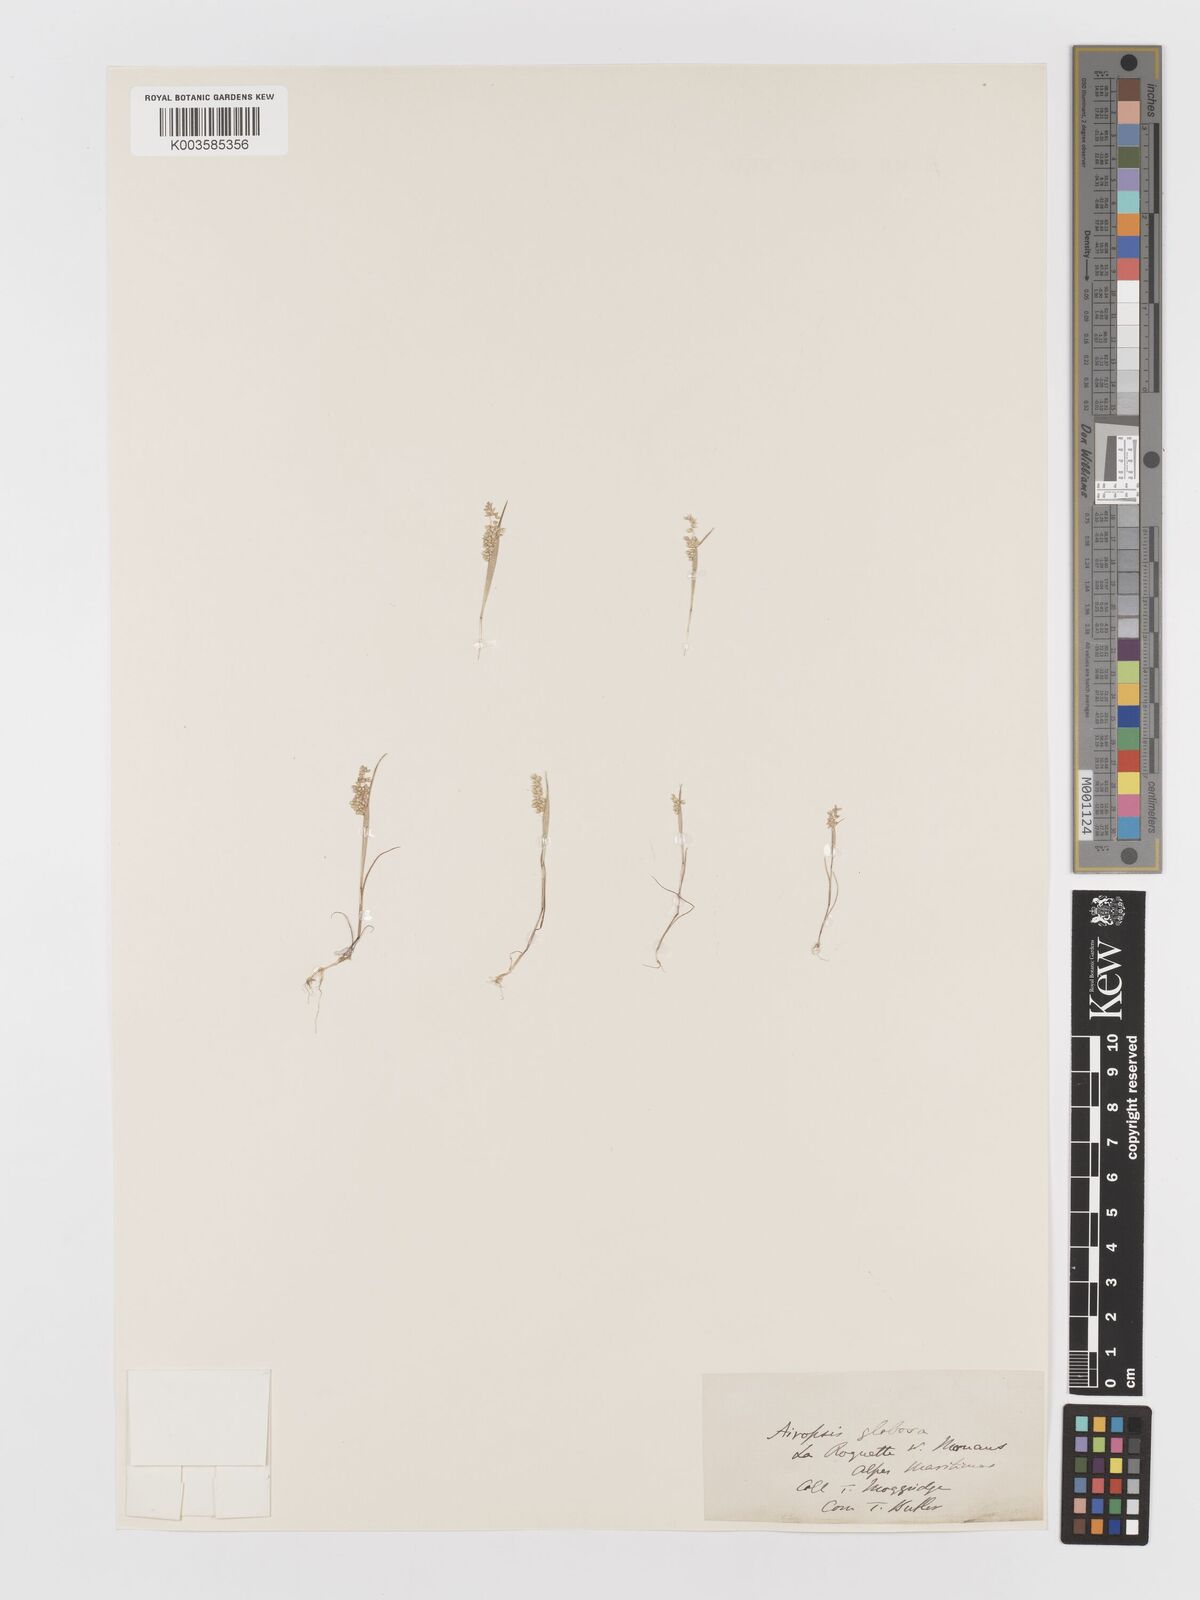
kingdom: Plantae
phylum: Tracheophyta
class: Liliopsida
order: Poales
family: Poaceae
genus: Airopsis
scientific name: Airopsis tenella
